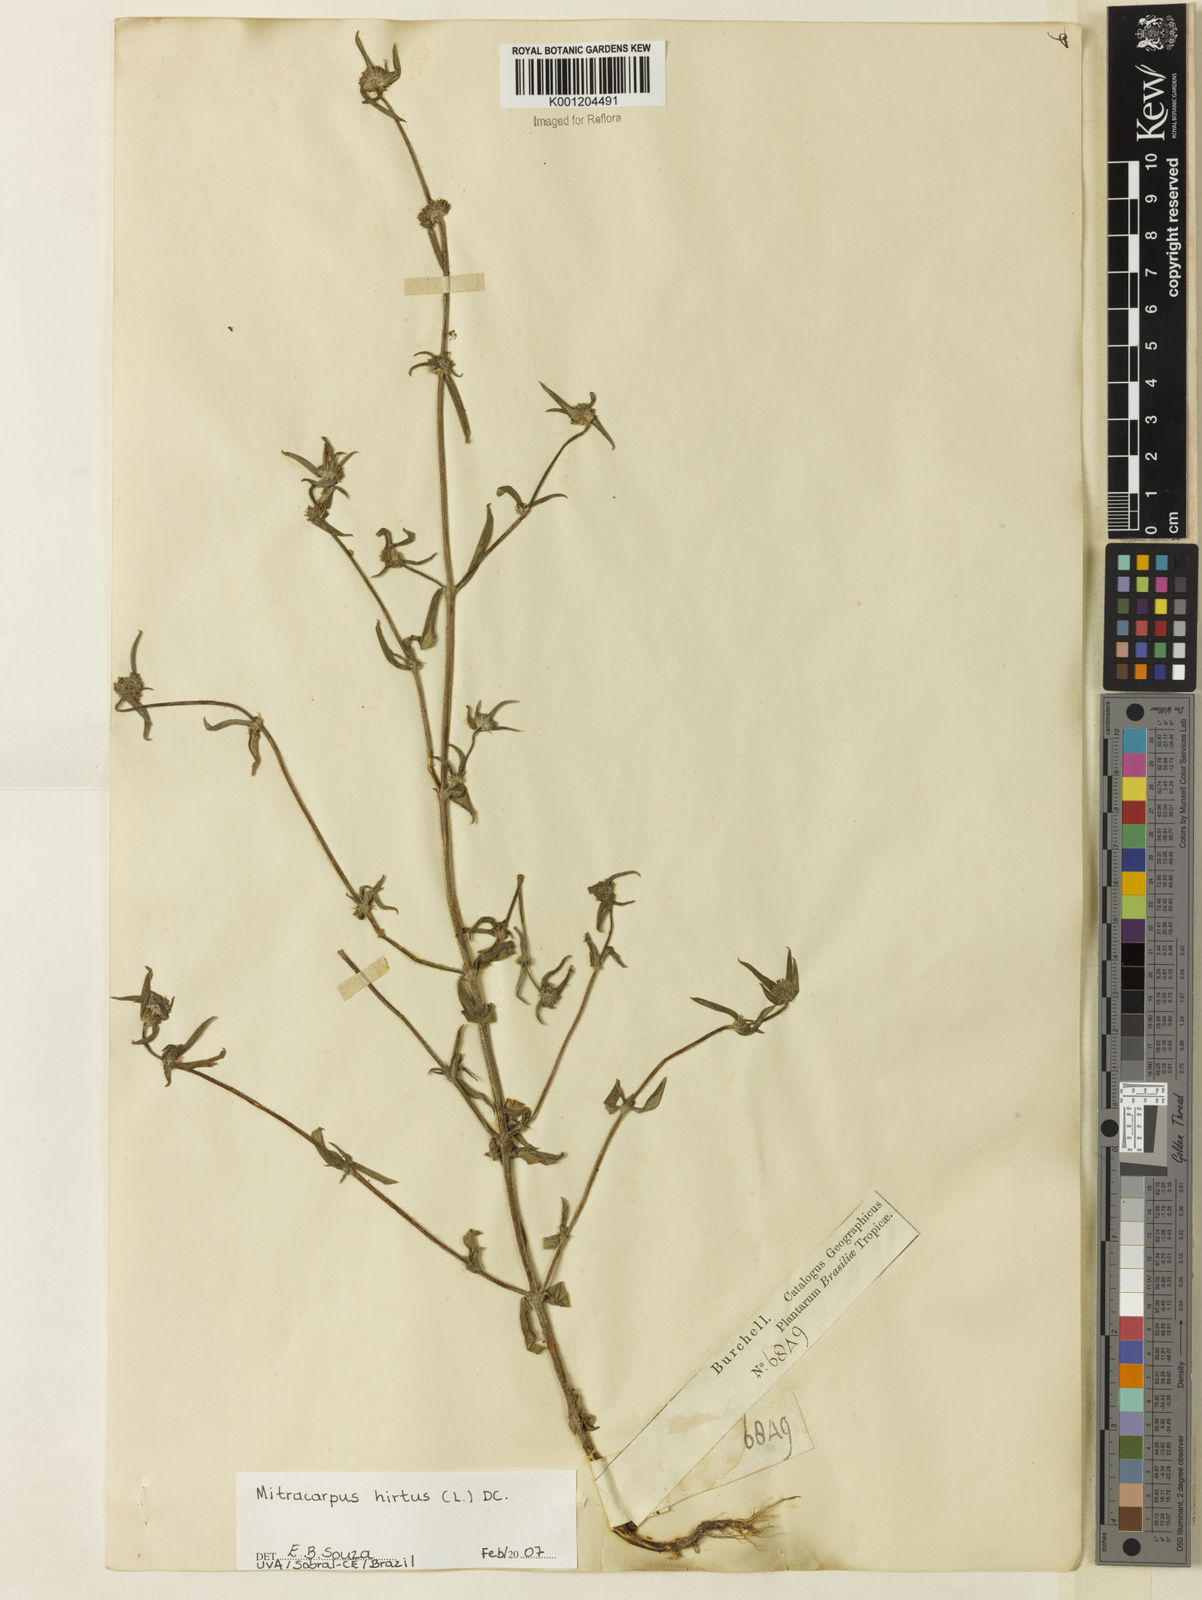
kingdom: Plantae
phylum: Tracheophyta
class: Magnoliopsida
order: Gentianales
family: Rubiaceae
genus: Mitracarpus
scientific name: Mitracarpus hirtus
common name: Tropical girdlepod
